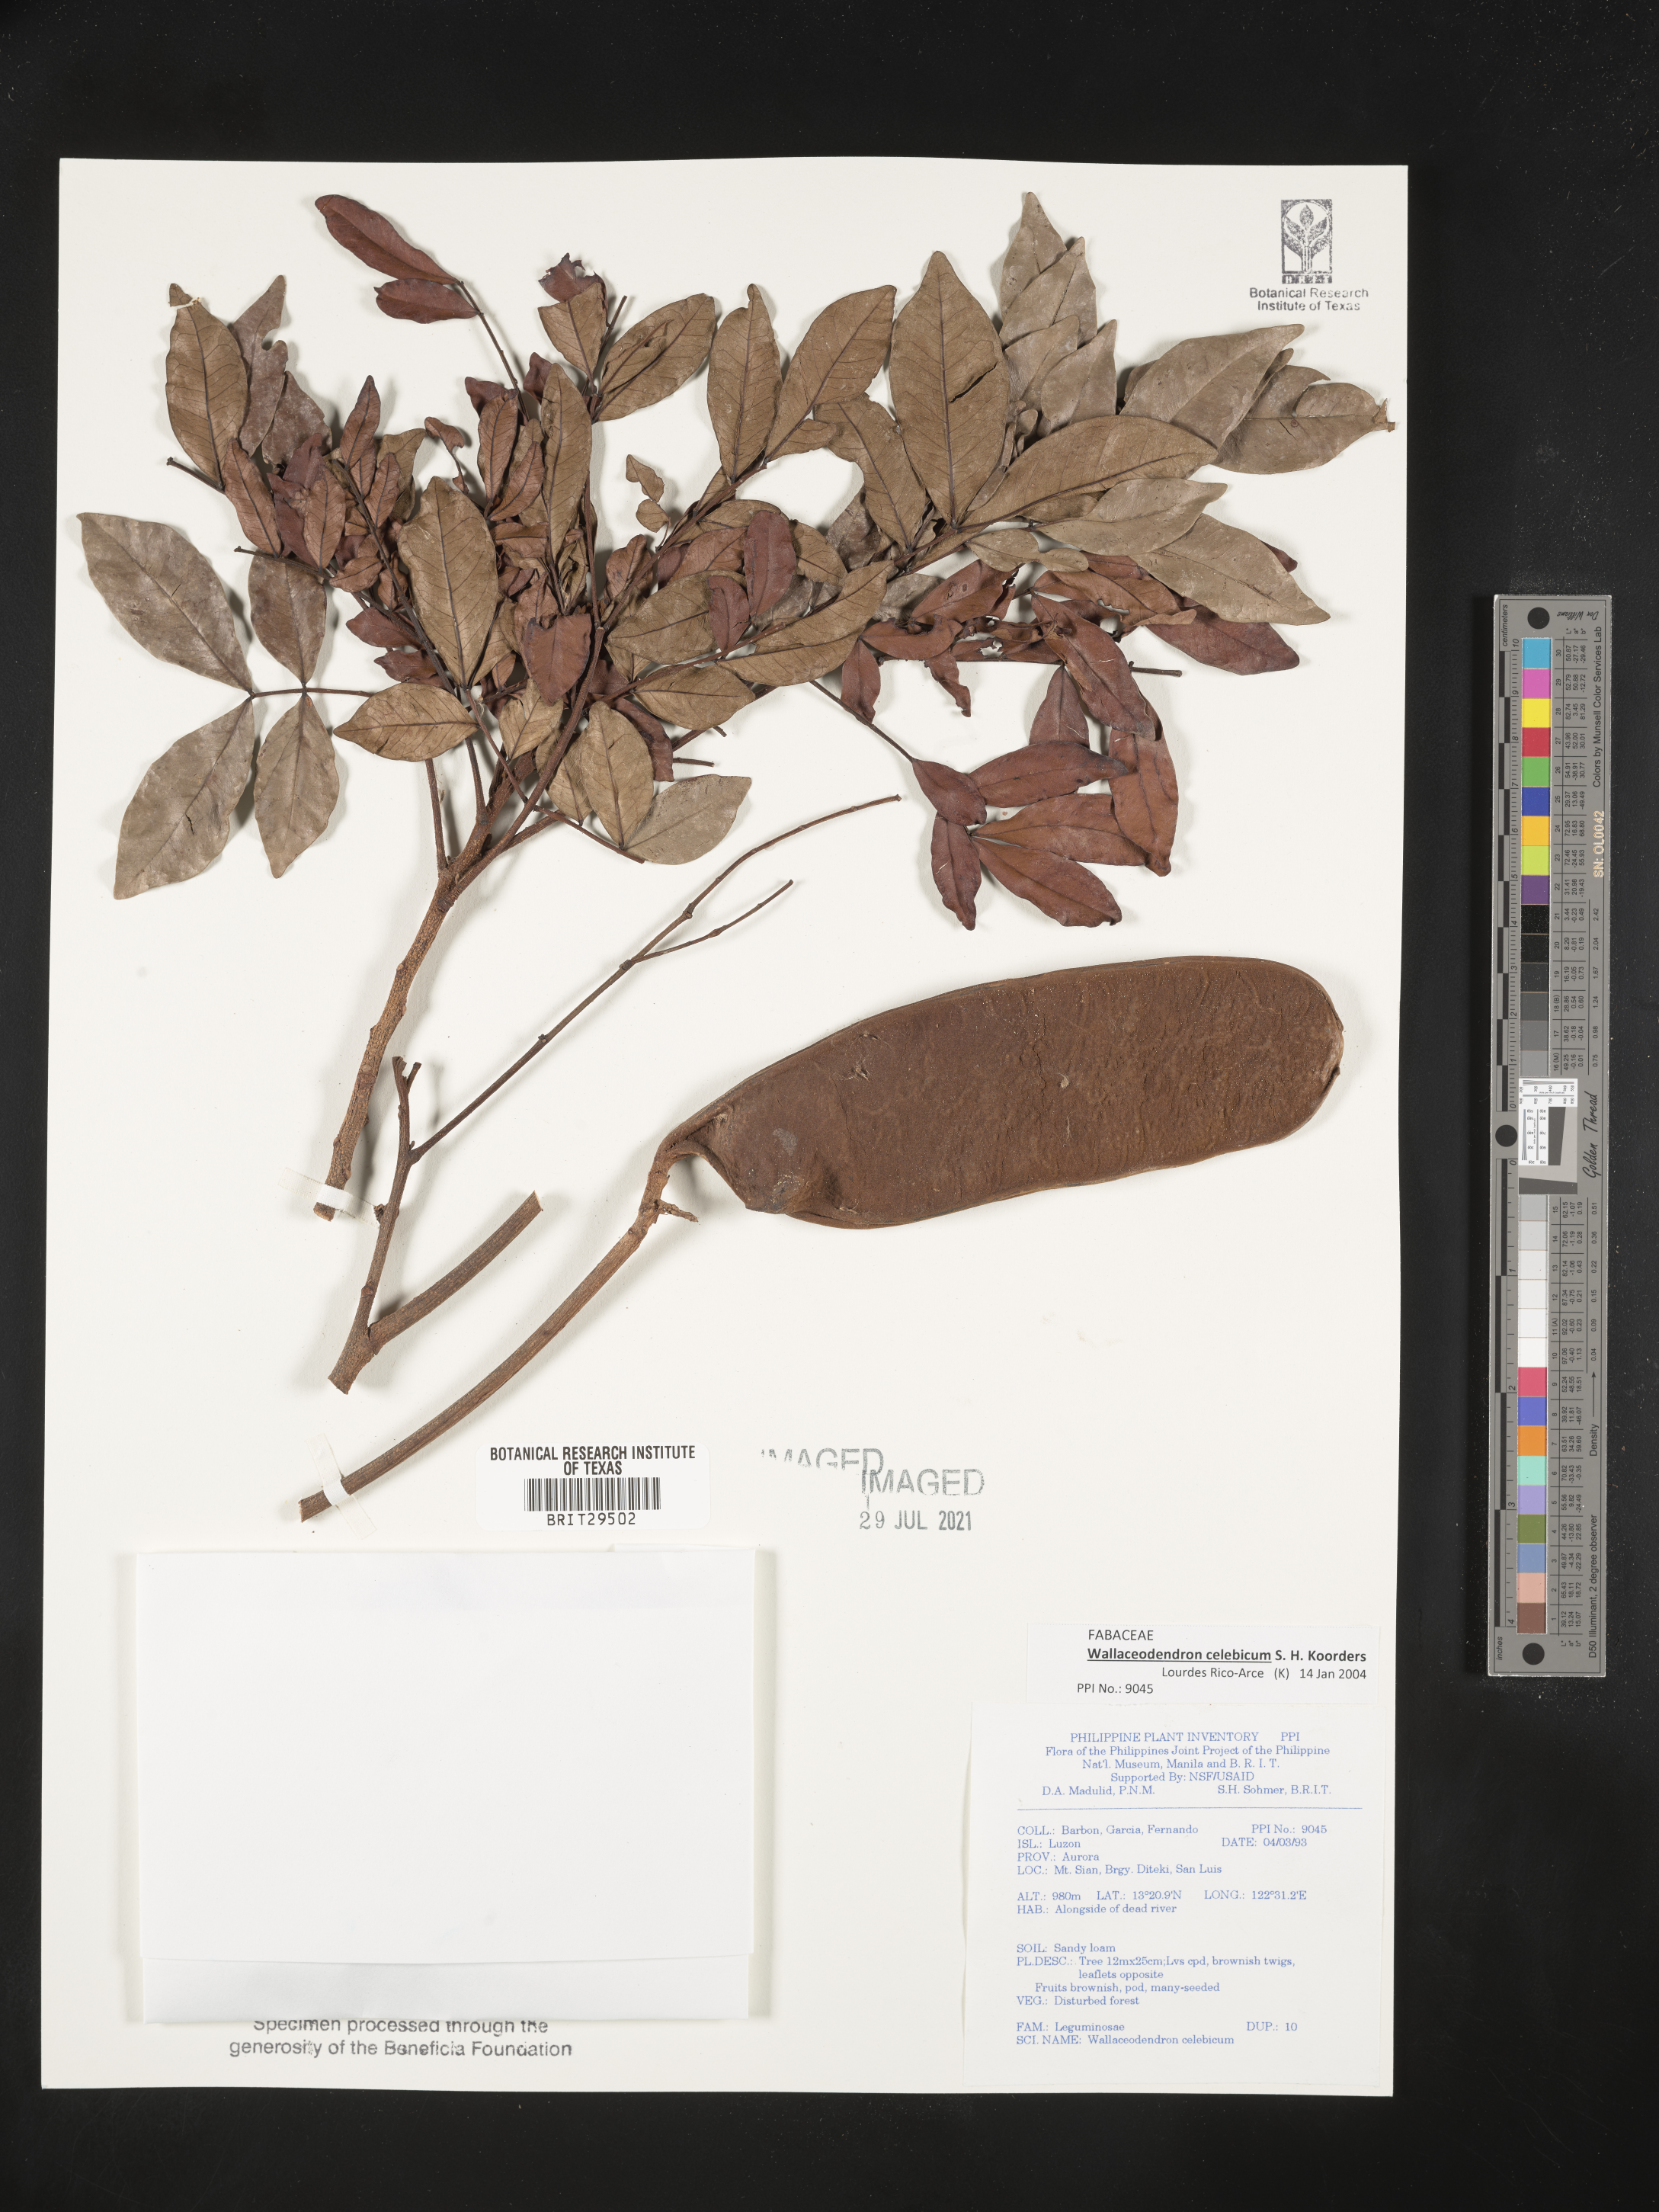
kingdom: Plantae
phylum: Tracheophyta
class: Magnoliopsida
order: Fabales
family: Fabaceae
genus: Wallaceodendron
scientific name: Wallaceodendron celebicum
